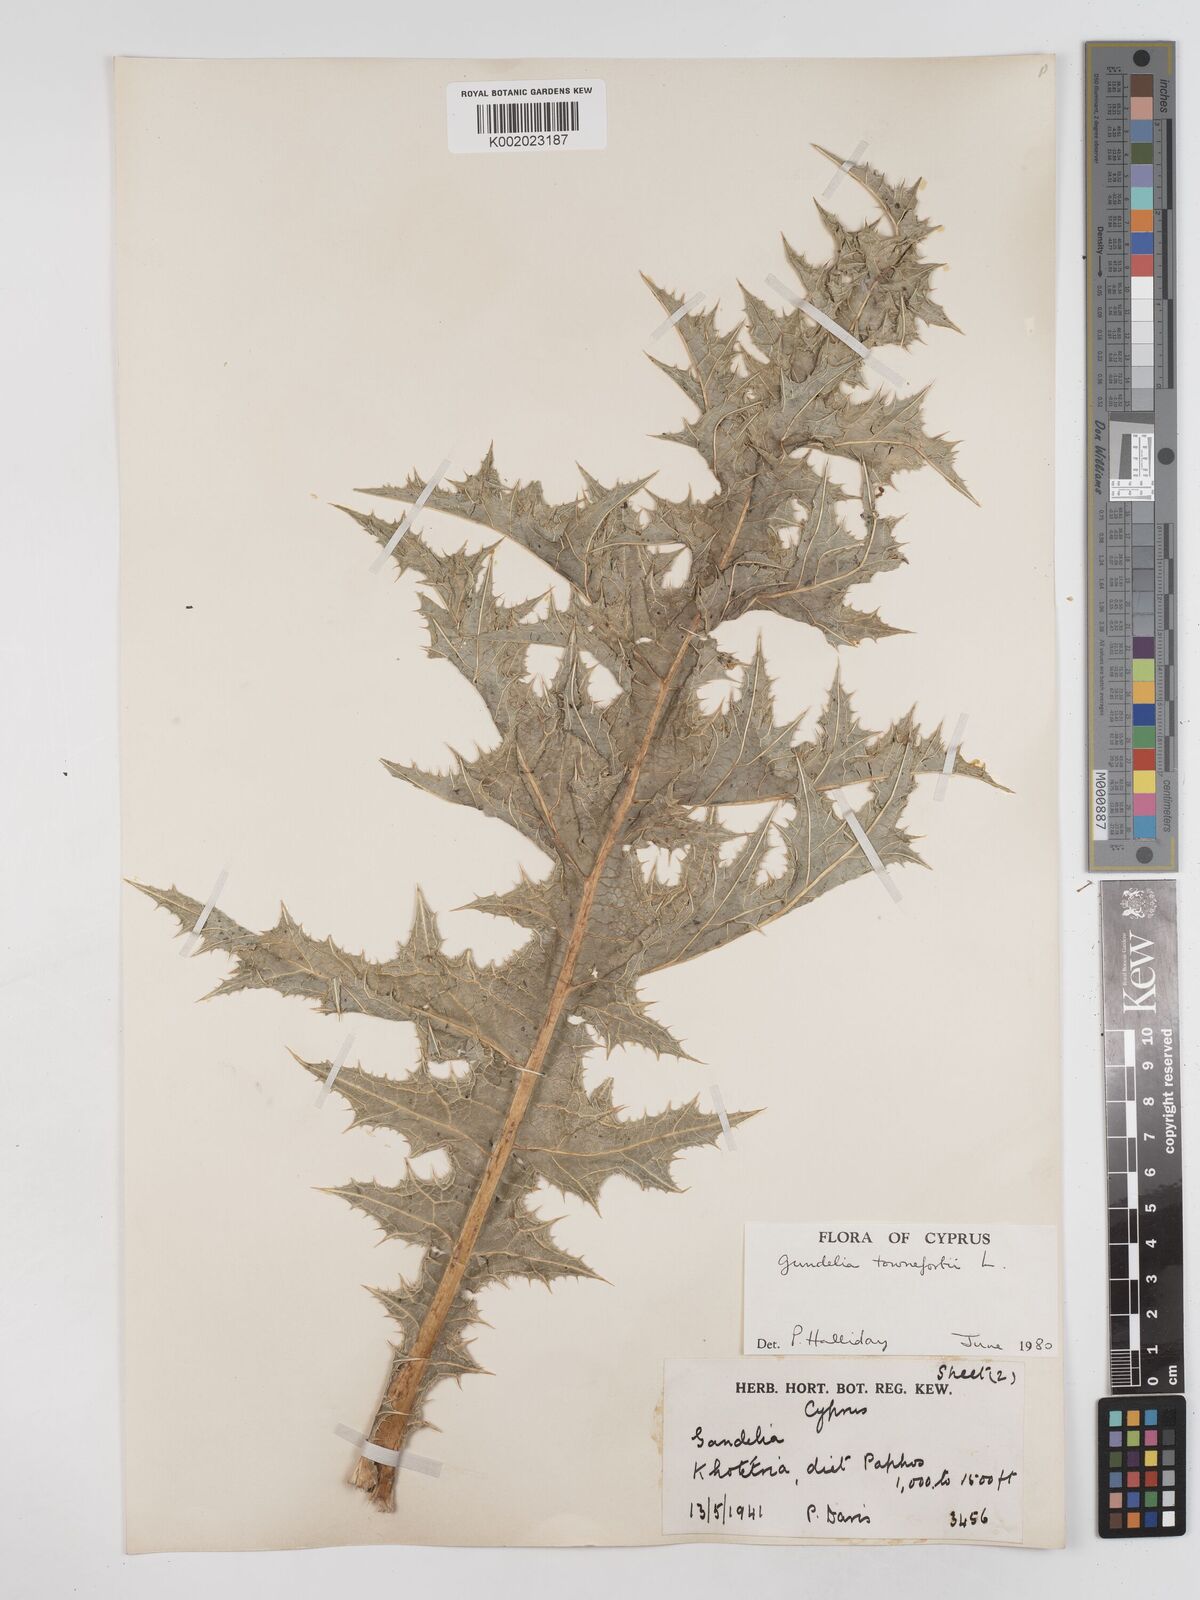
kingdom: Plantae
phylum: Tracheophyta
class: Magnoliopsida
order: Asterales
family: Asteraceae
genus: Gundelia
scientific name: Gundelia tournefortii
